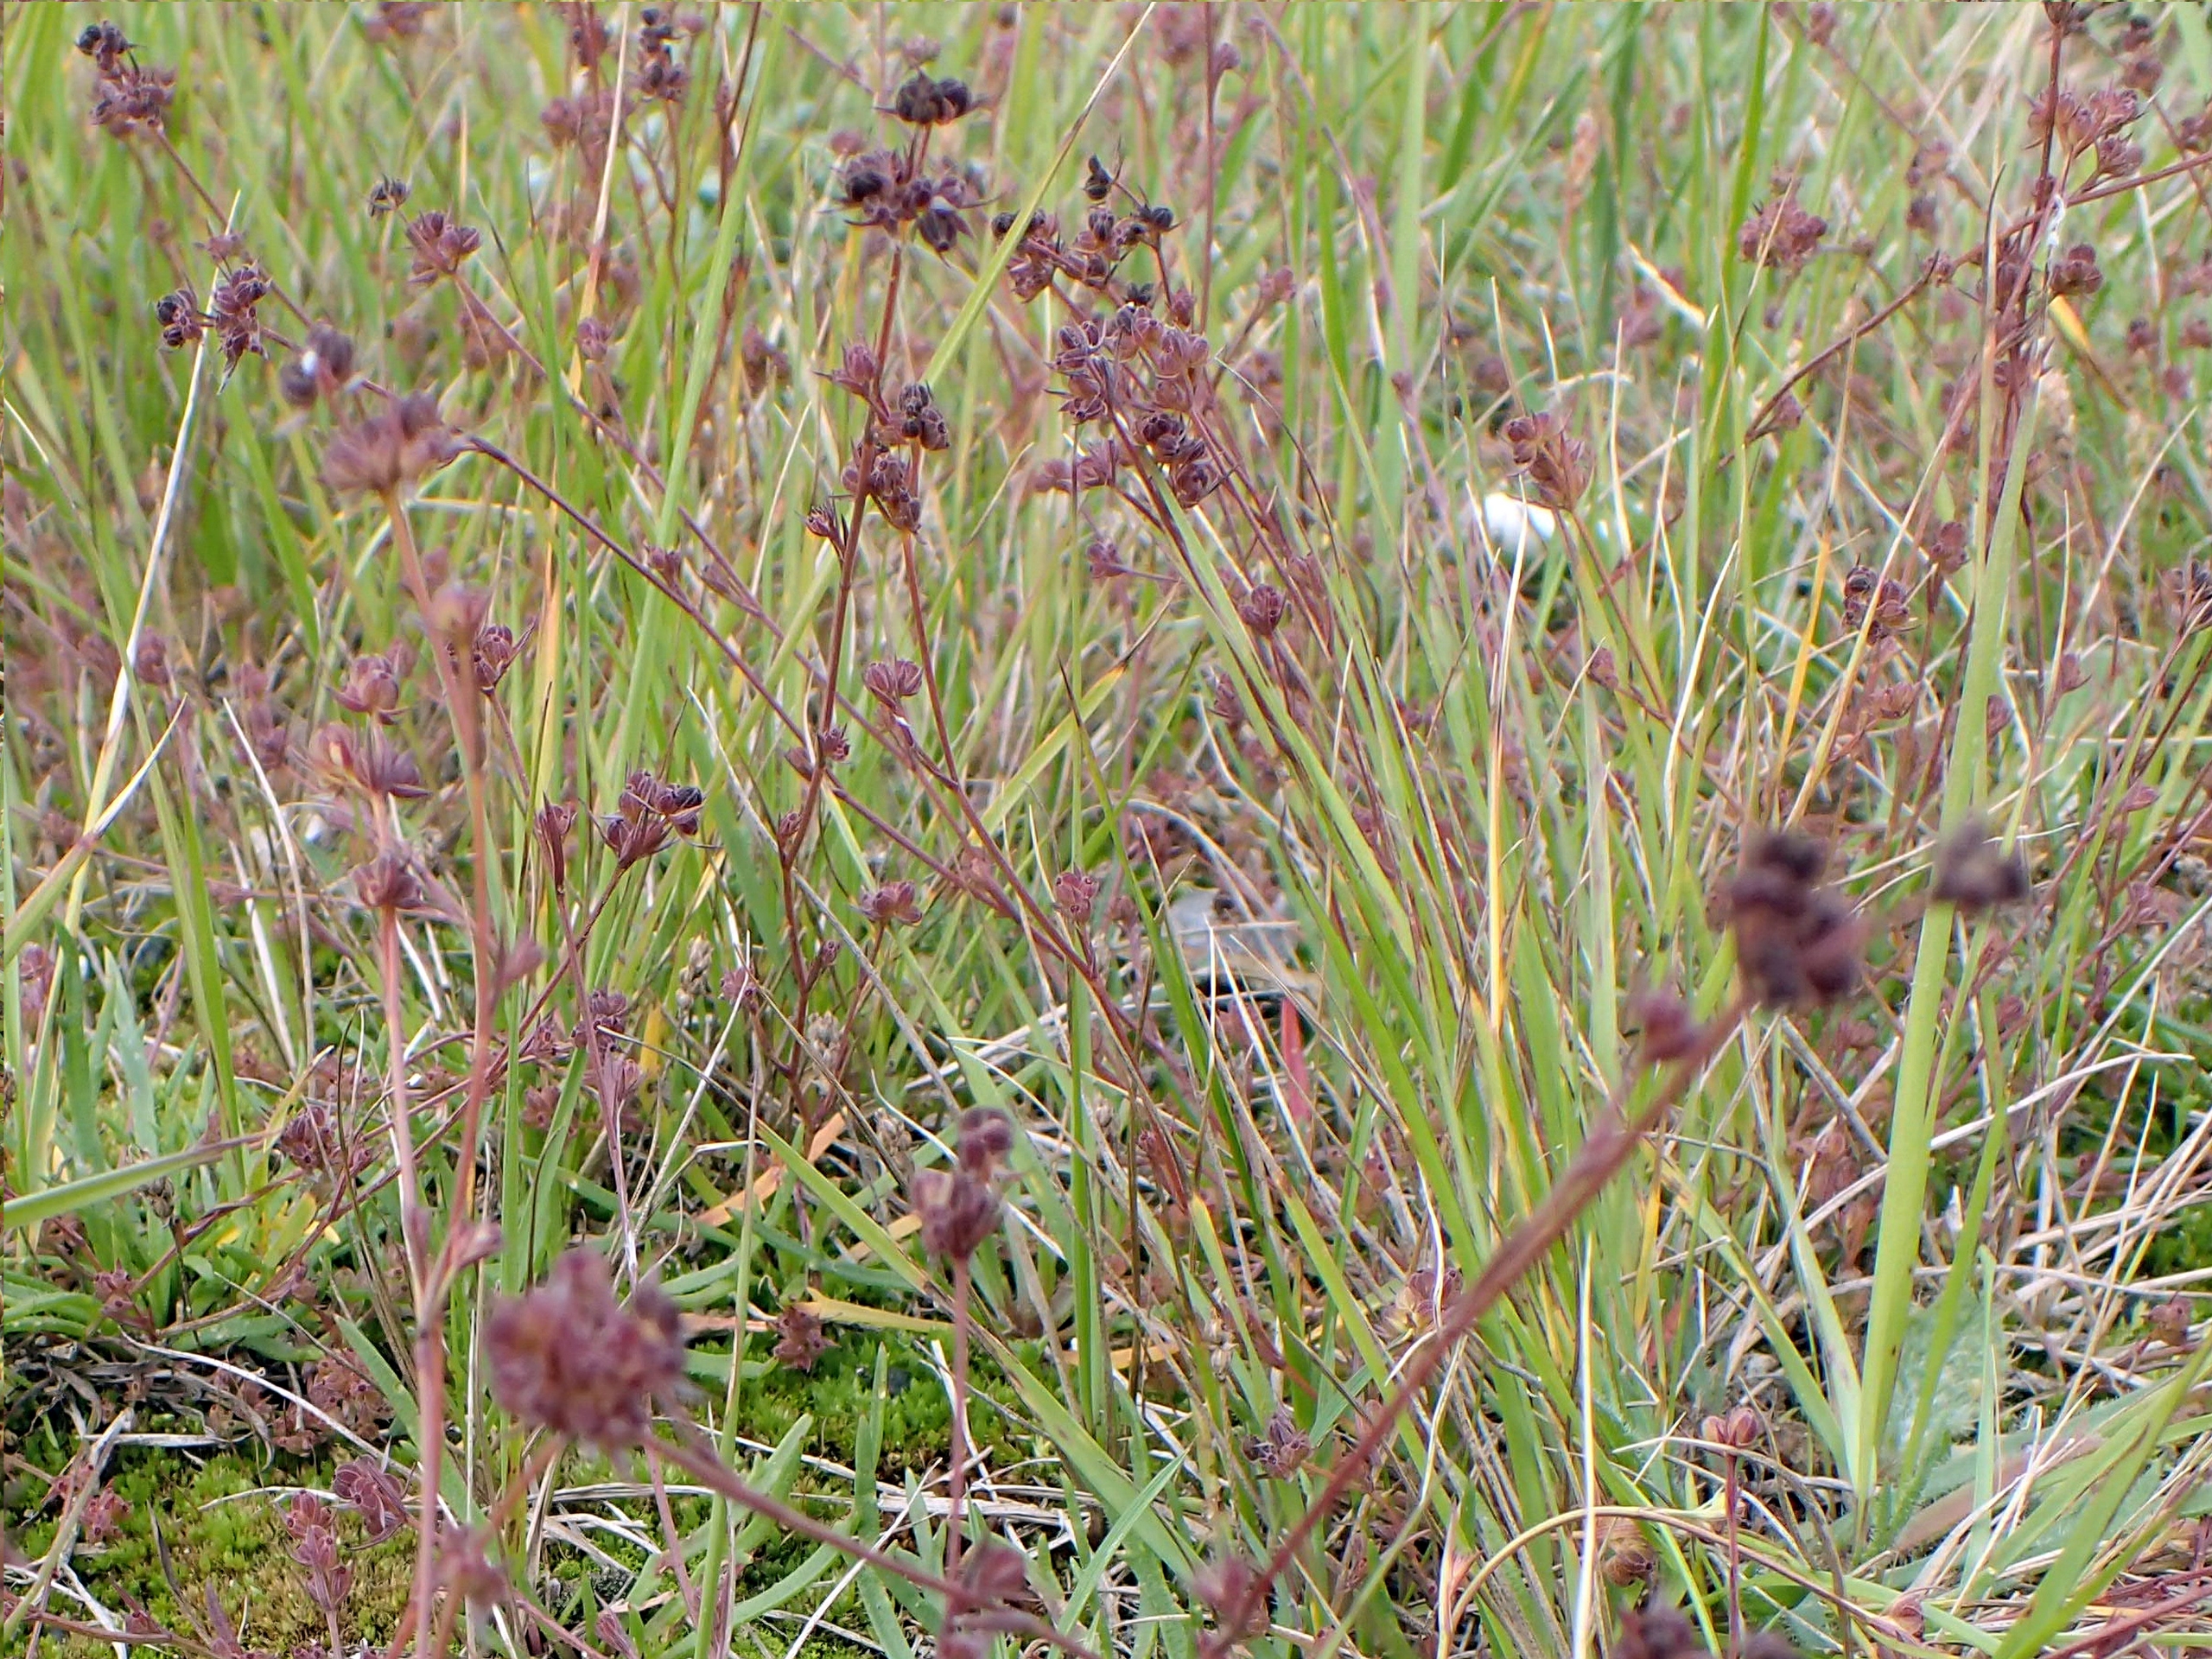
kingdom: Plantae
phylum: Tracheophyta
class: Magnoliopsida
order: Apiales
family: Apiaceae
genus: Bupleurum
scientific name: Bupleurum tenuissimum
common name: Smalbladet hareøre
